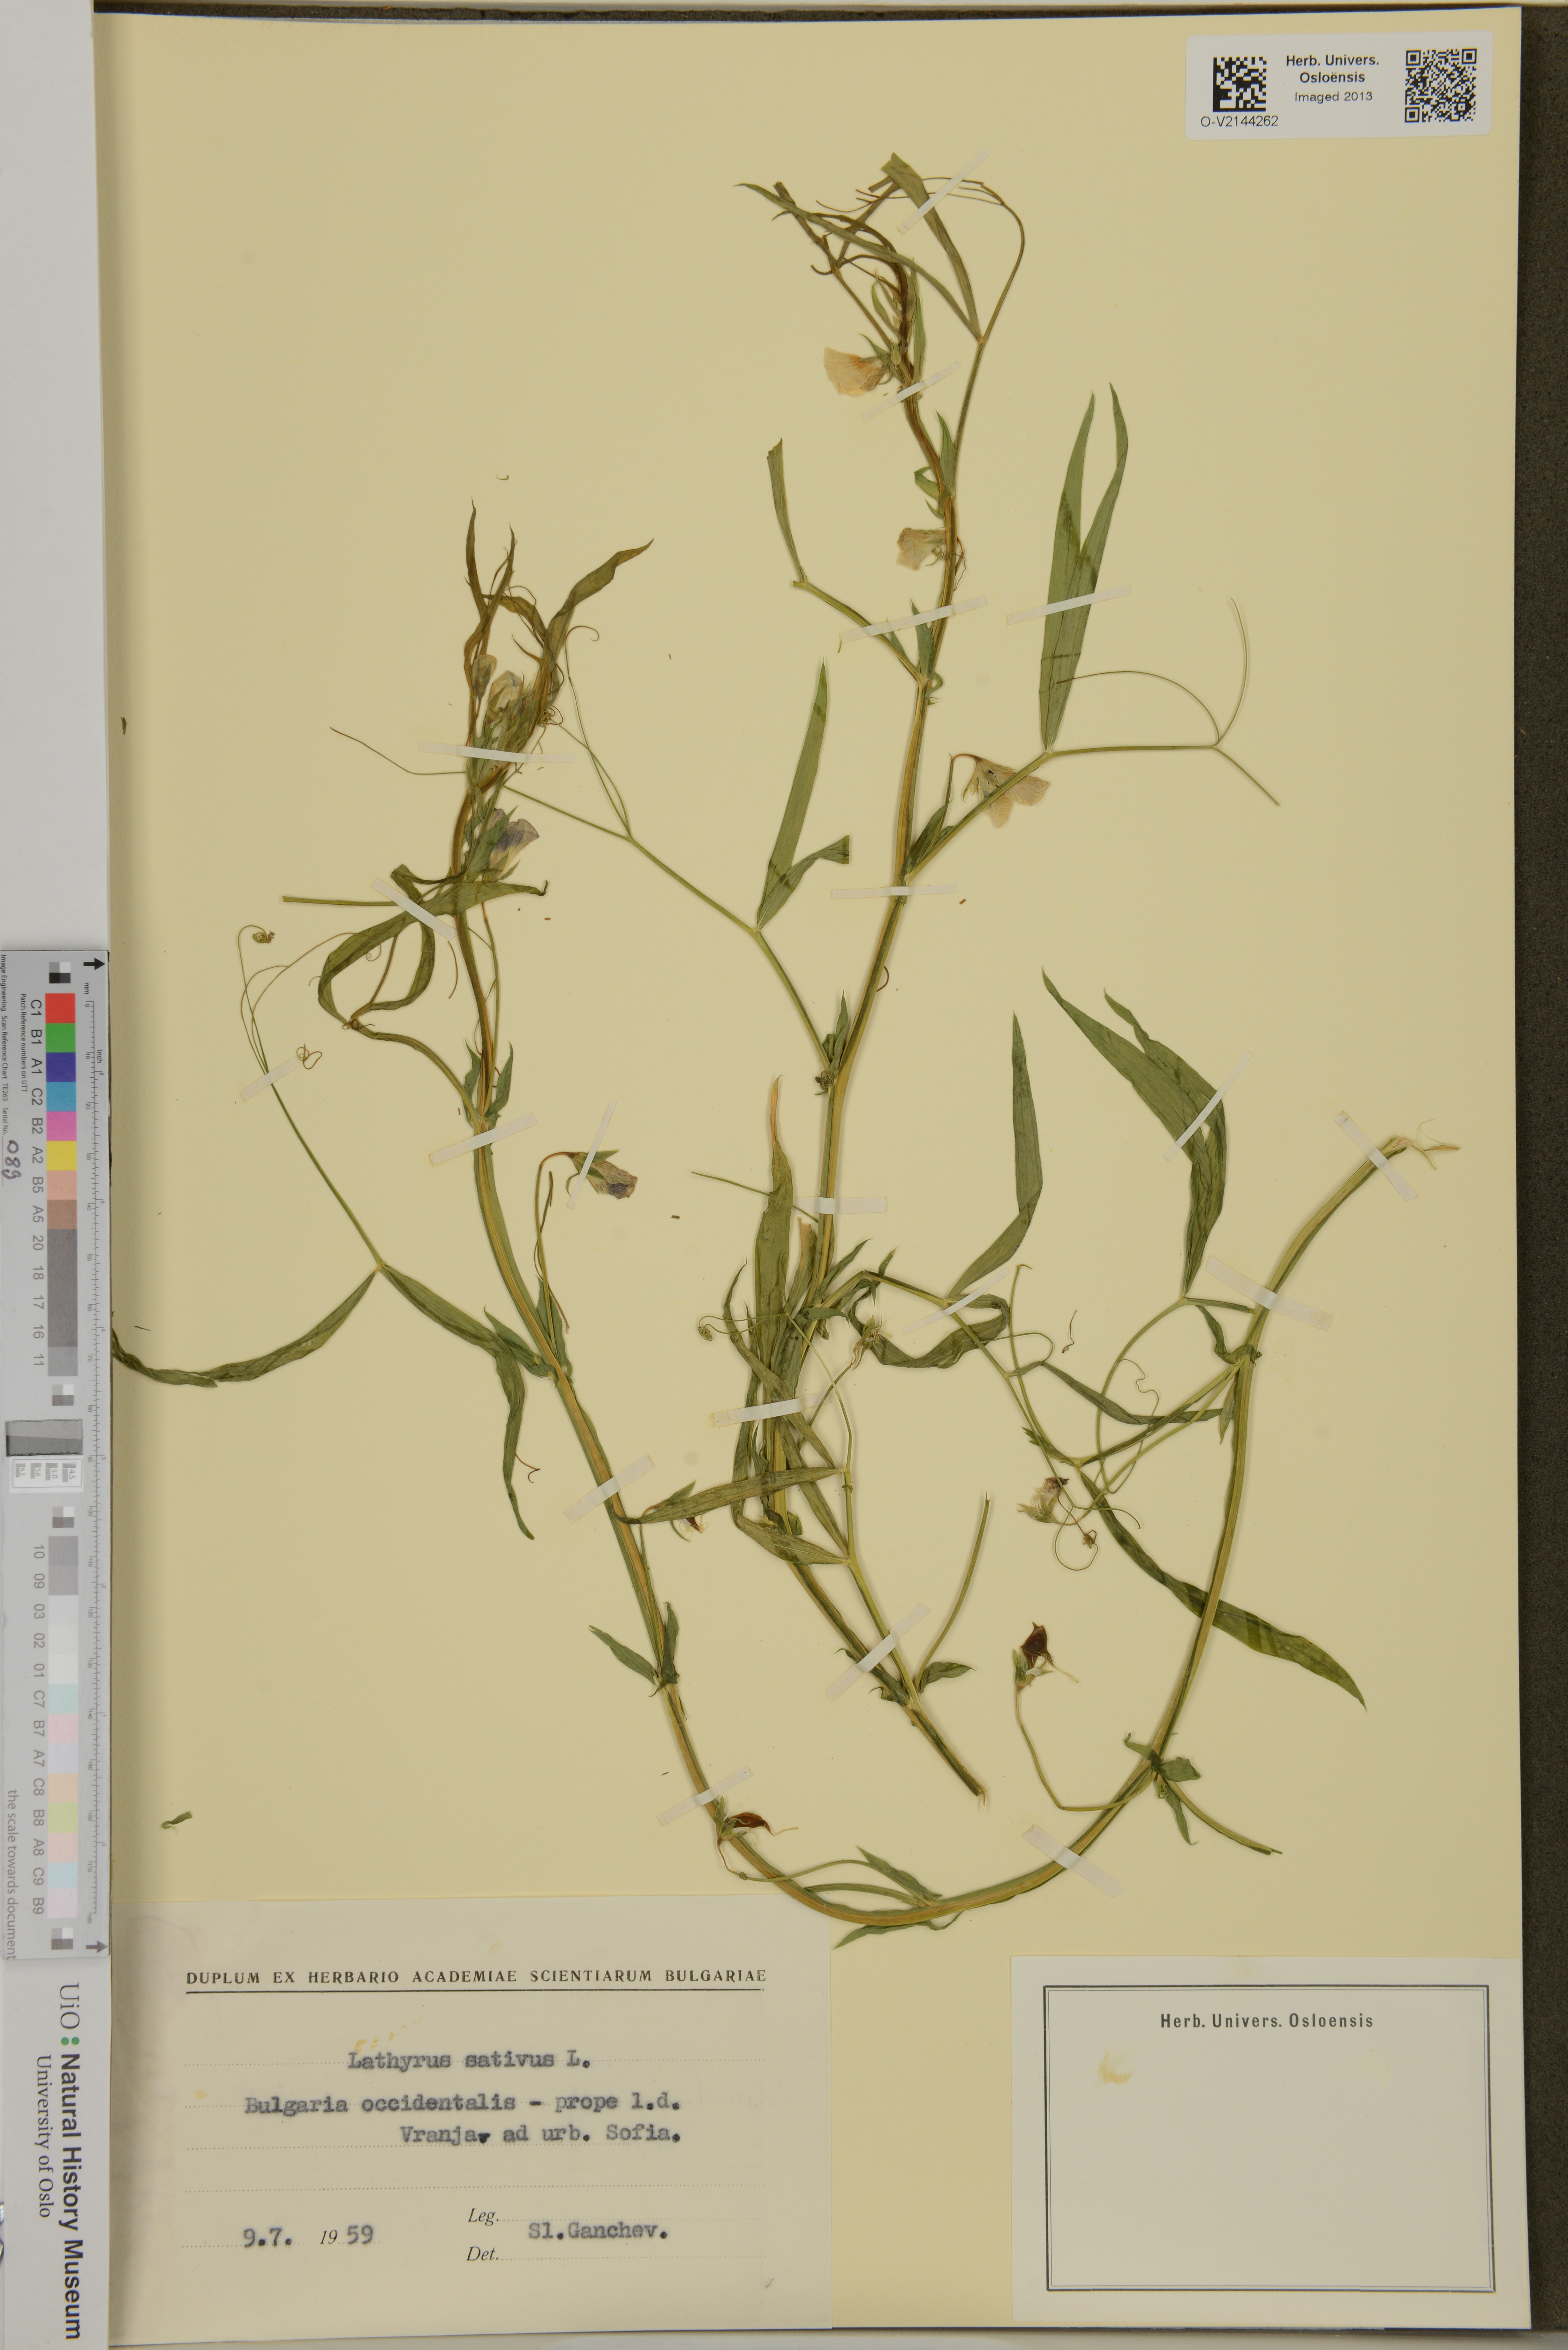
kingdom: Plantae
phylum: Tracheophyta
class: Magnoliopsida
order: Fabales
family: Fabaceae
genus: Lathyrus
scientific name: Lathyrus sativus
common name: Indian pea
